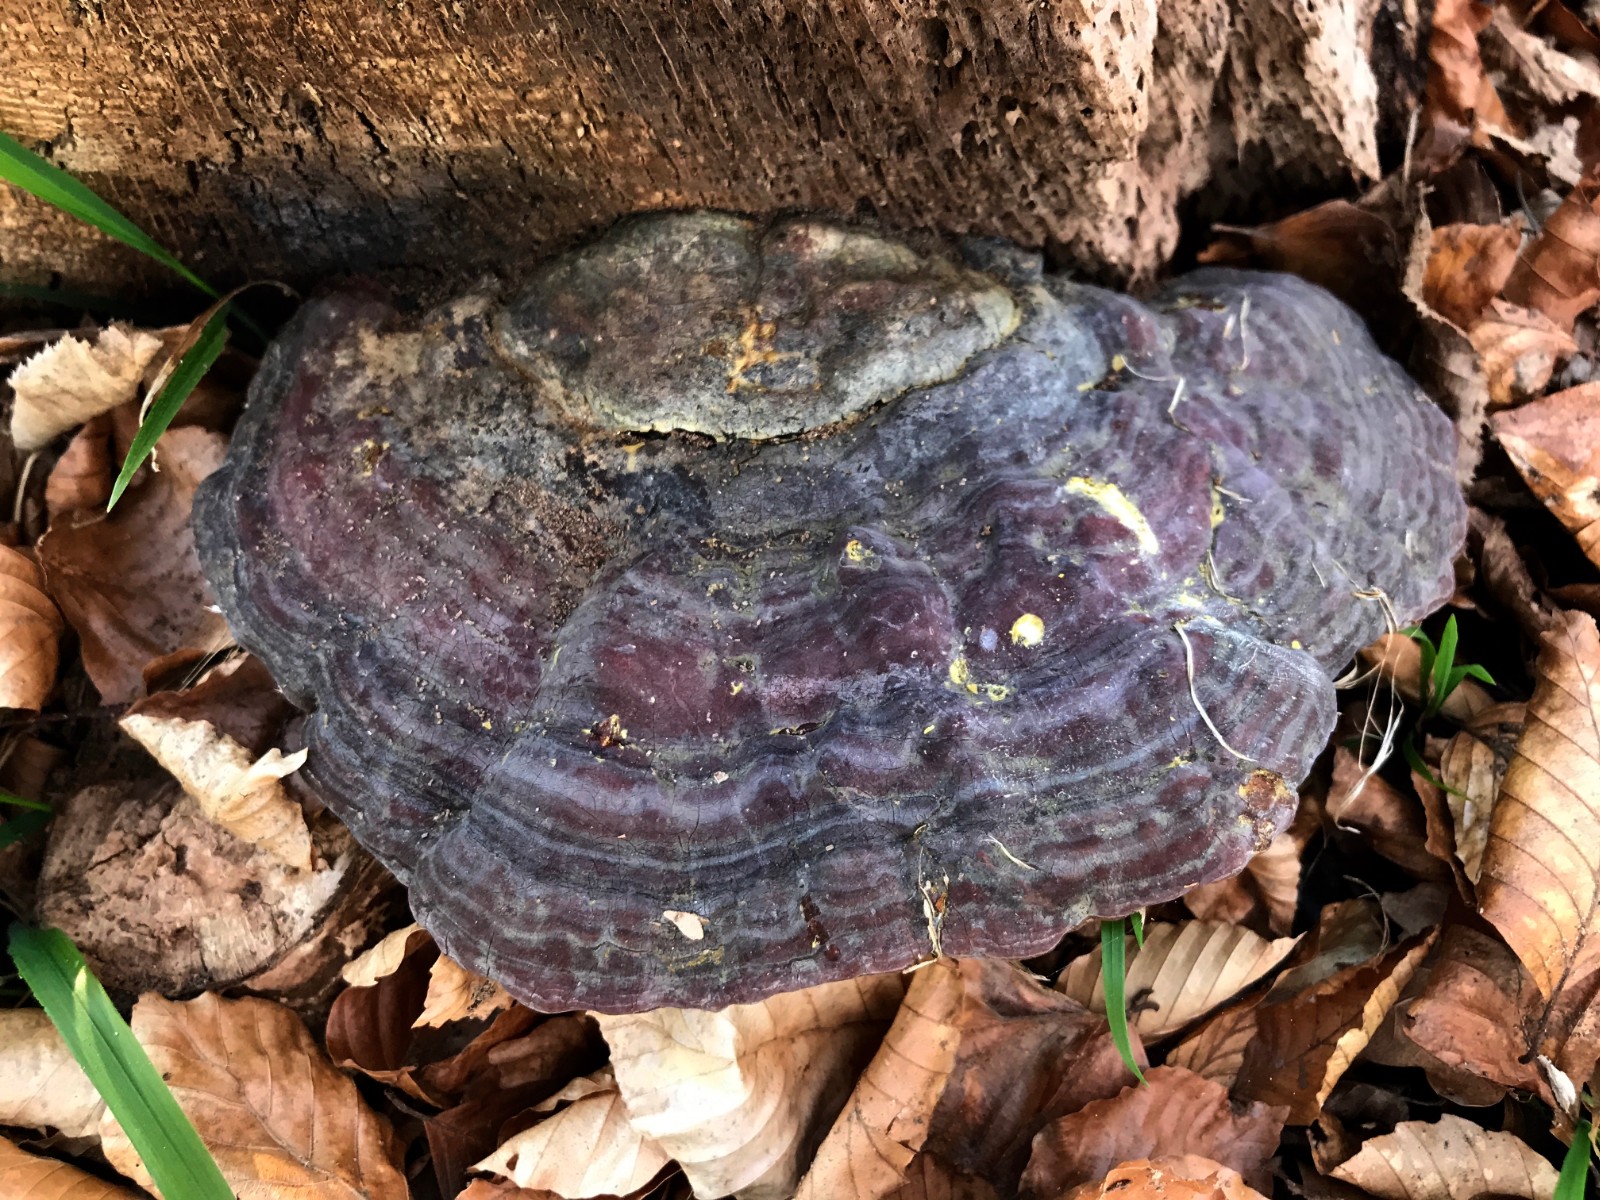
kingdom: Fungi
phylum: Basidiomycota
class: Agaricomycetes
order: Polyporales
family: Polyporaceae
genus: Ganoderma
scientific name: Ganoderma pfeifferi
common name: kobberrød lakporesvamp
